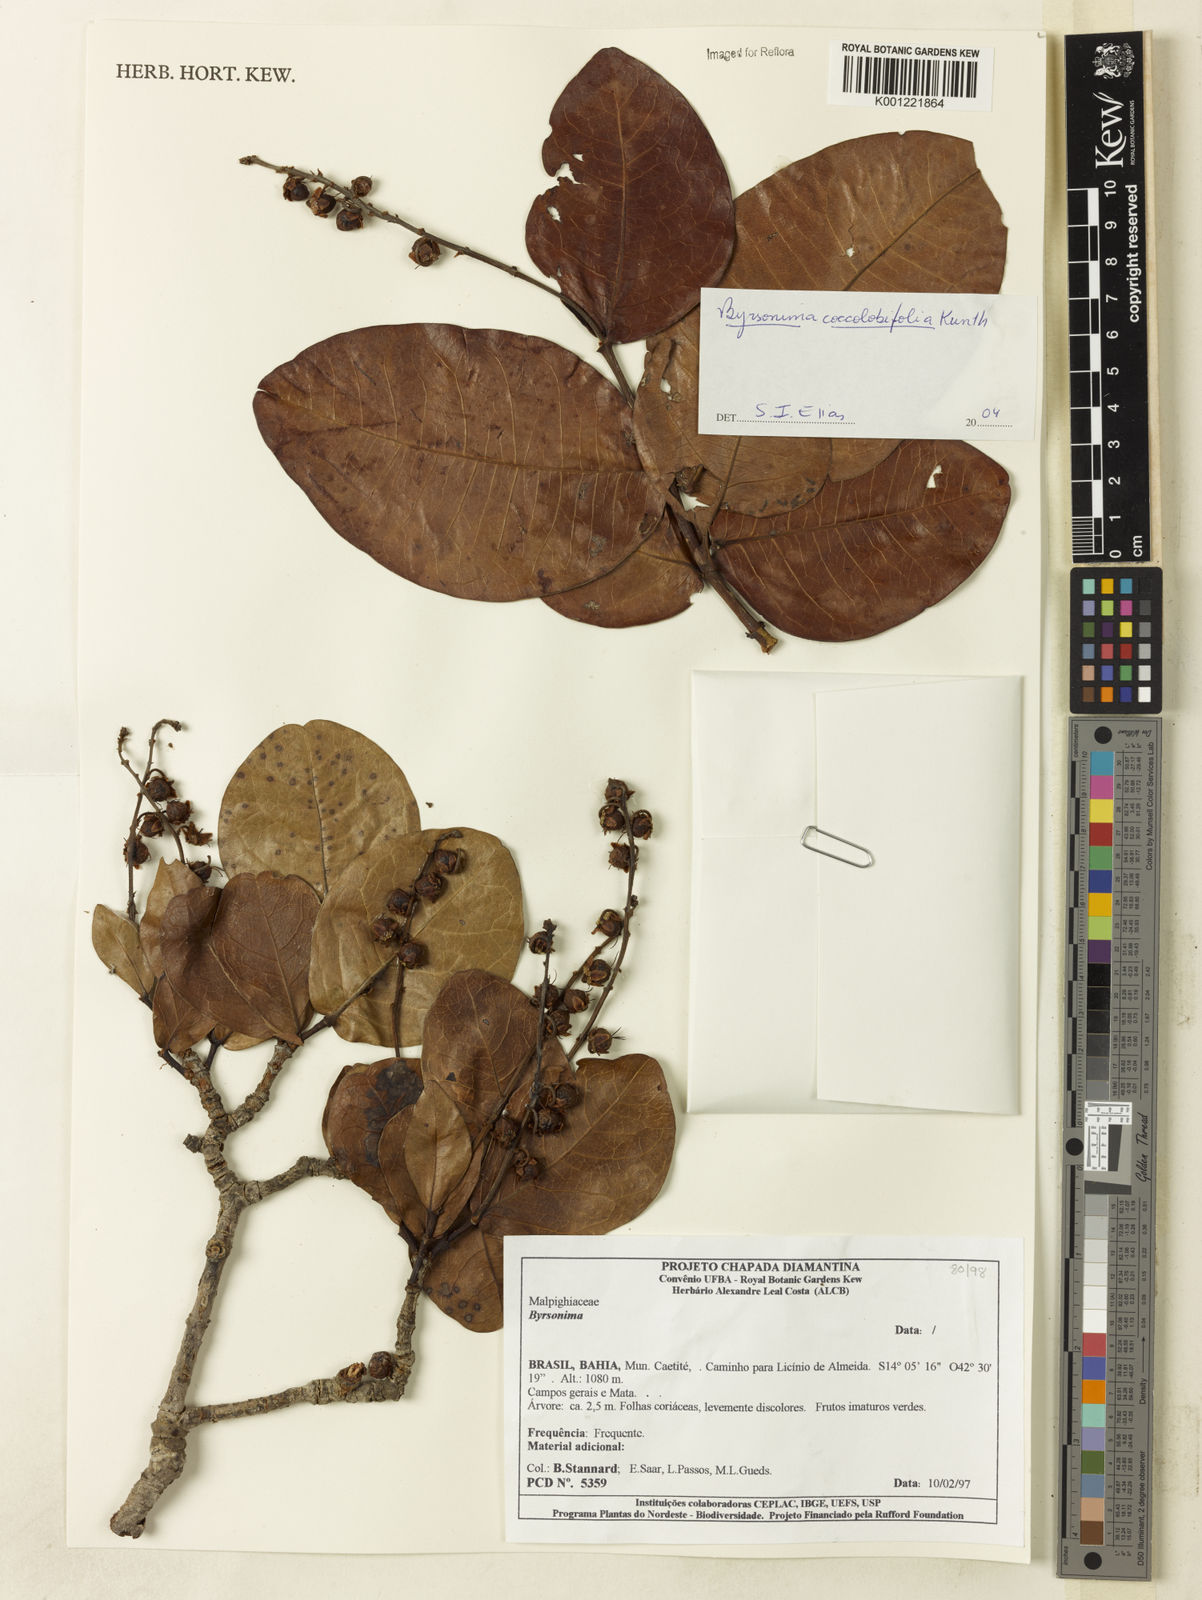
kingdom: Plantae
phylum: Tracheophyta
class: Magnoliopsida
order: Malpighiales
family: Malpighiaceae
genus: Byrsonima
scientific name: Byrsonima coccolobifolia
